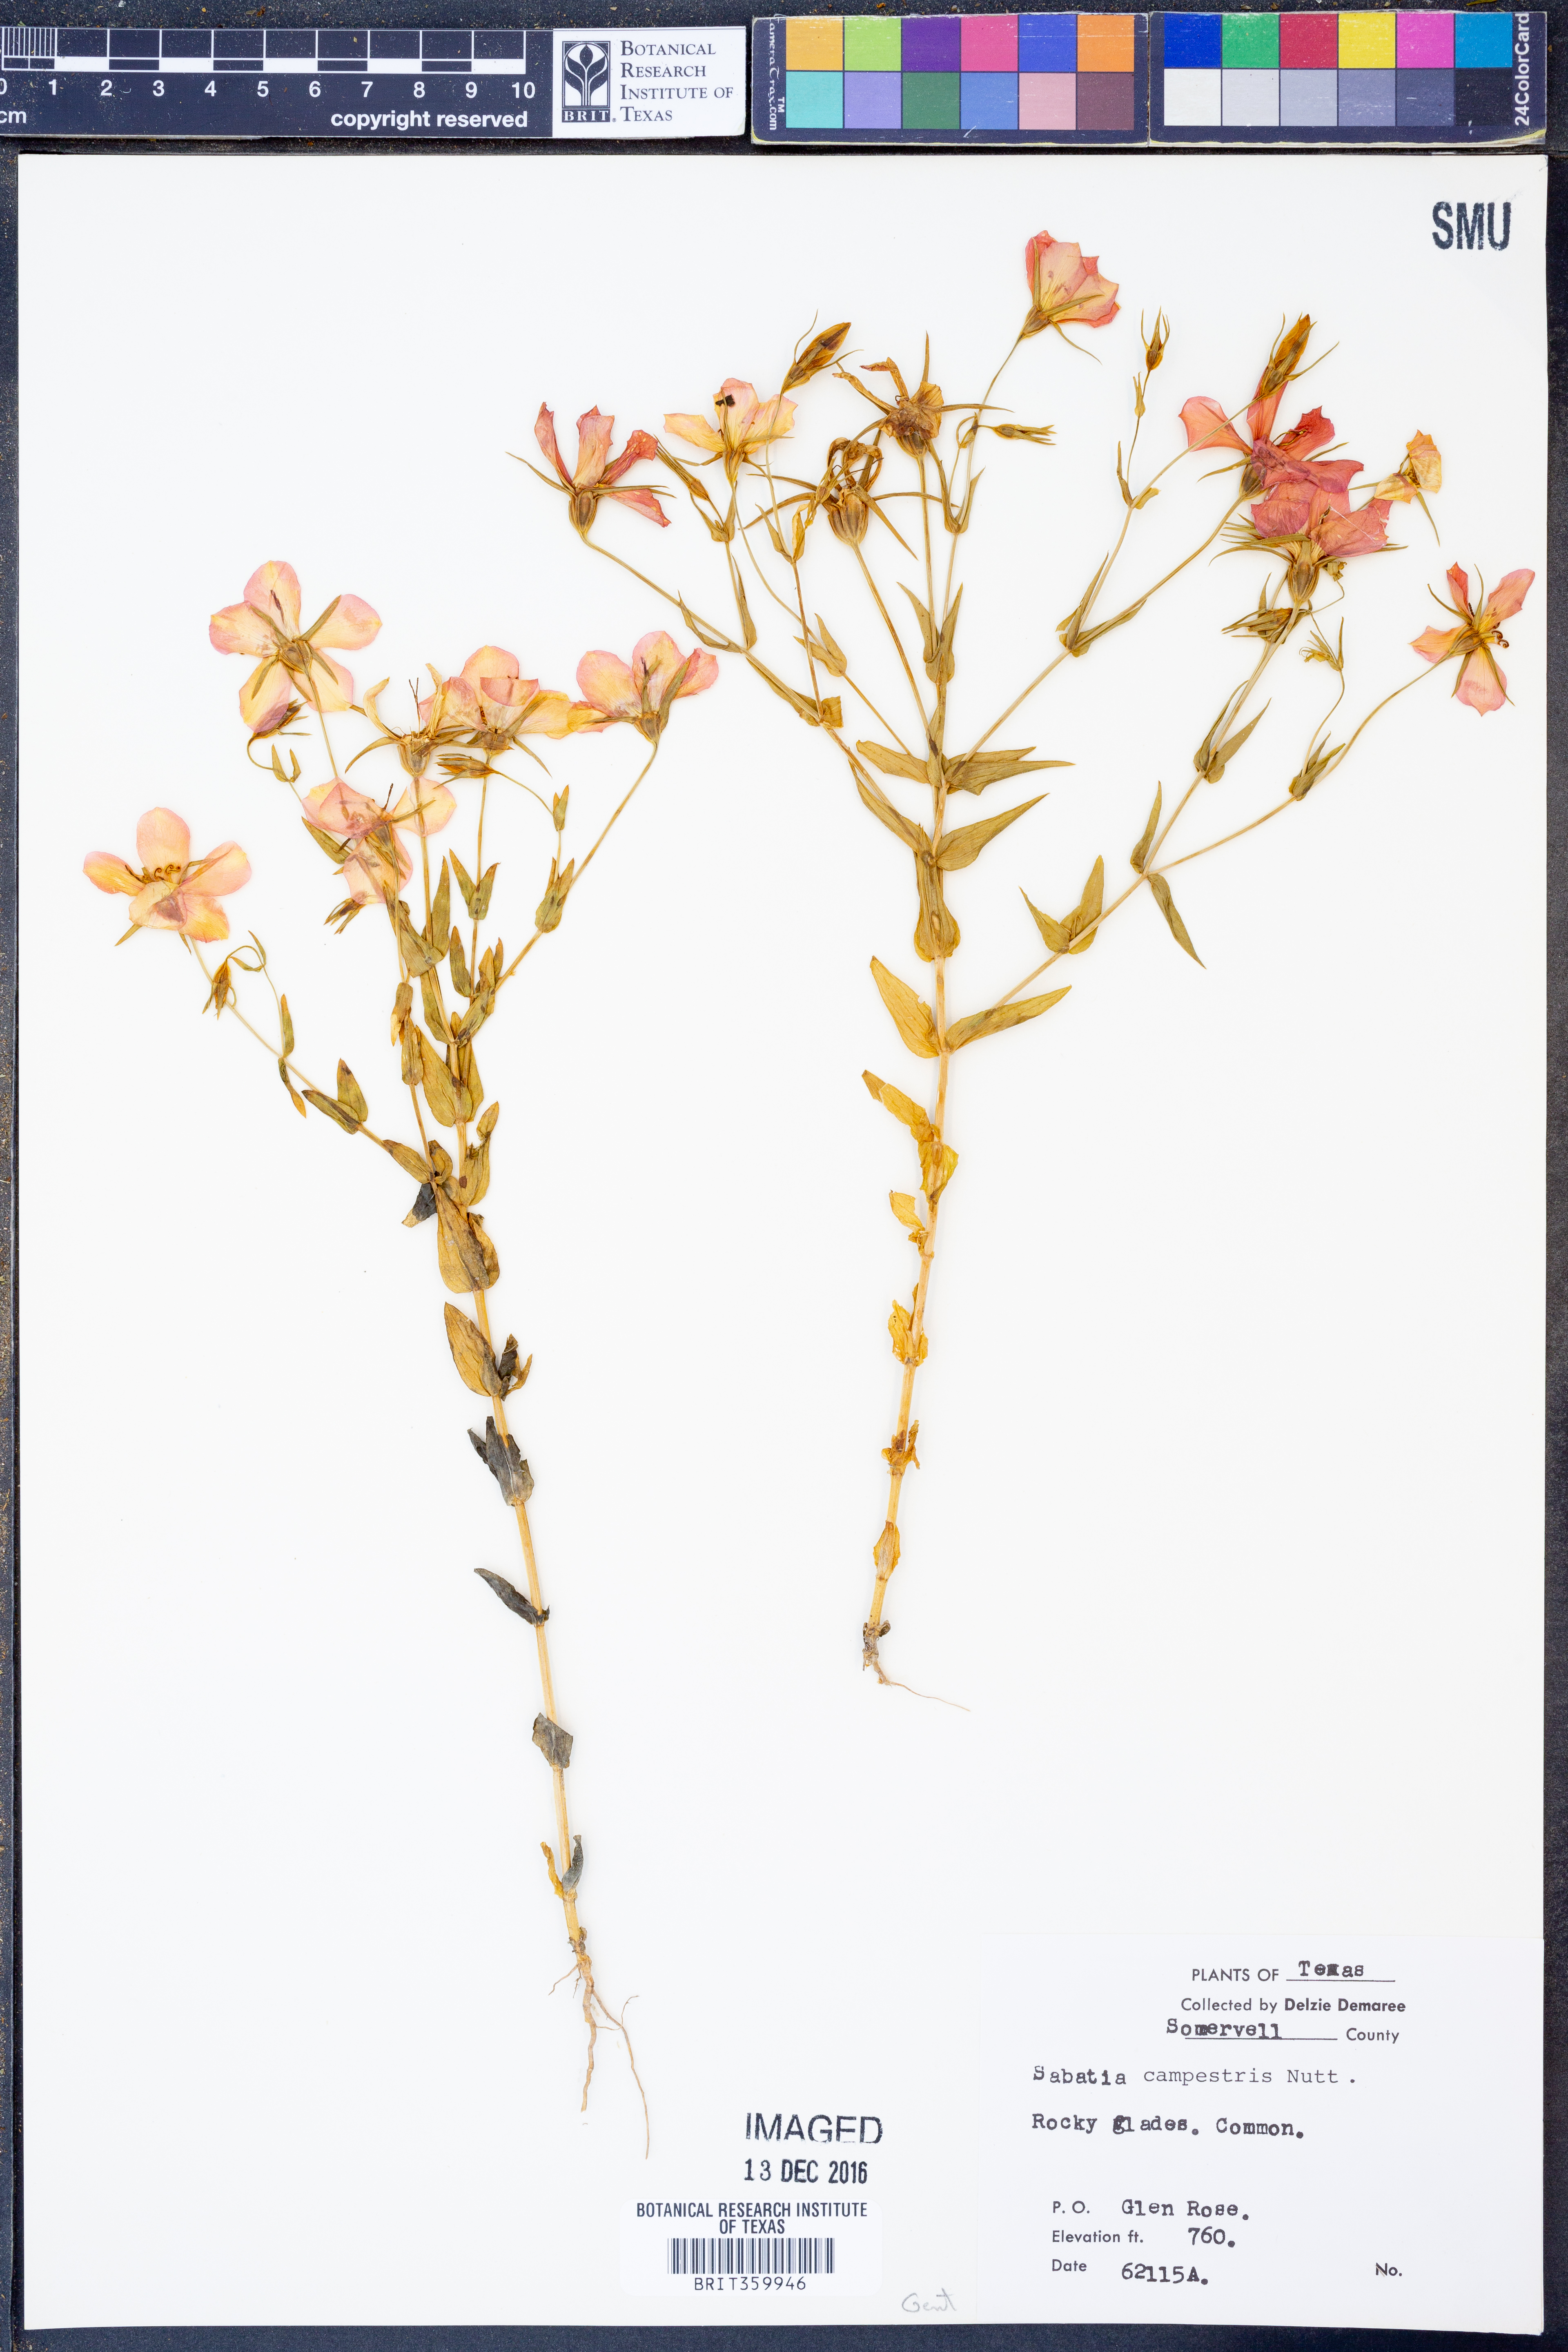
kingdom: Plantae
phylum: Tracheophyta
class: Magnoliopsida
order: Gentianales
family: Gentianaceae
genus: Sabatia
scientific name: Sabatia campestris
